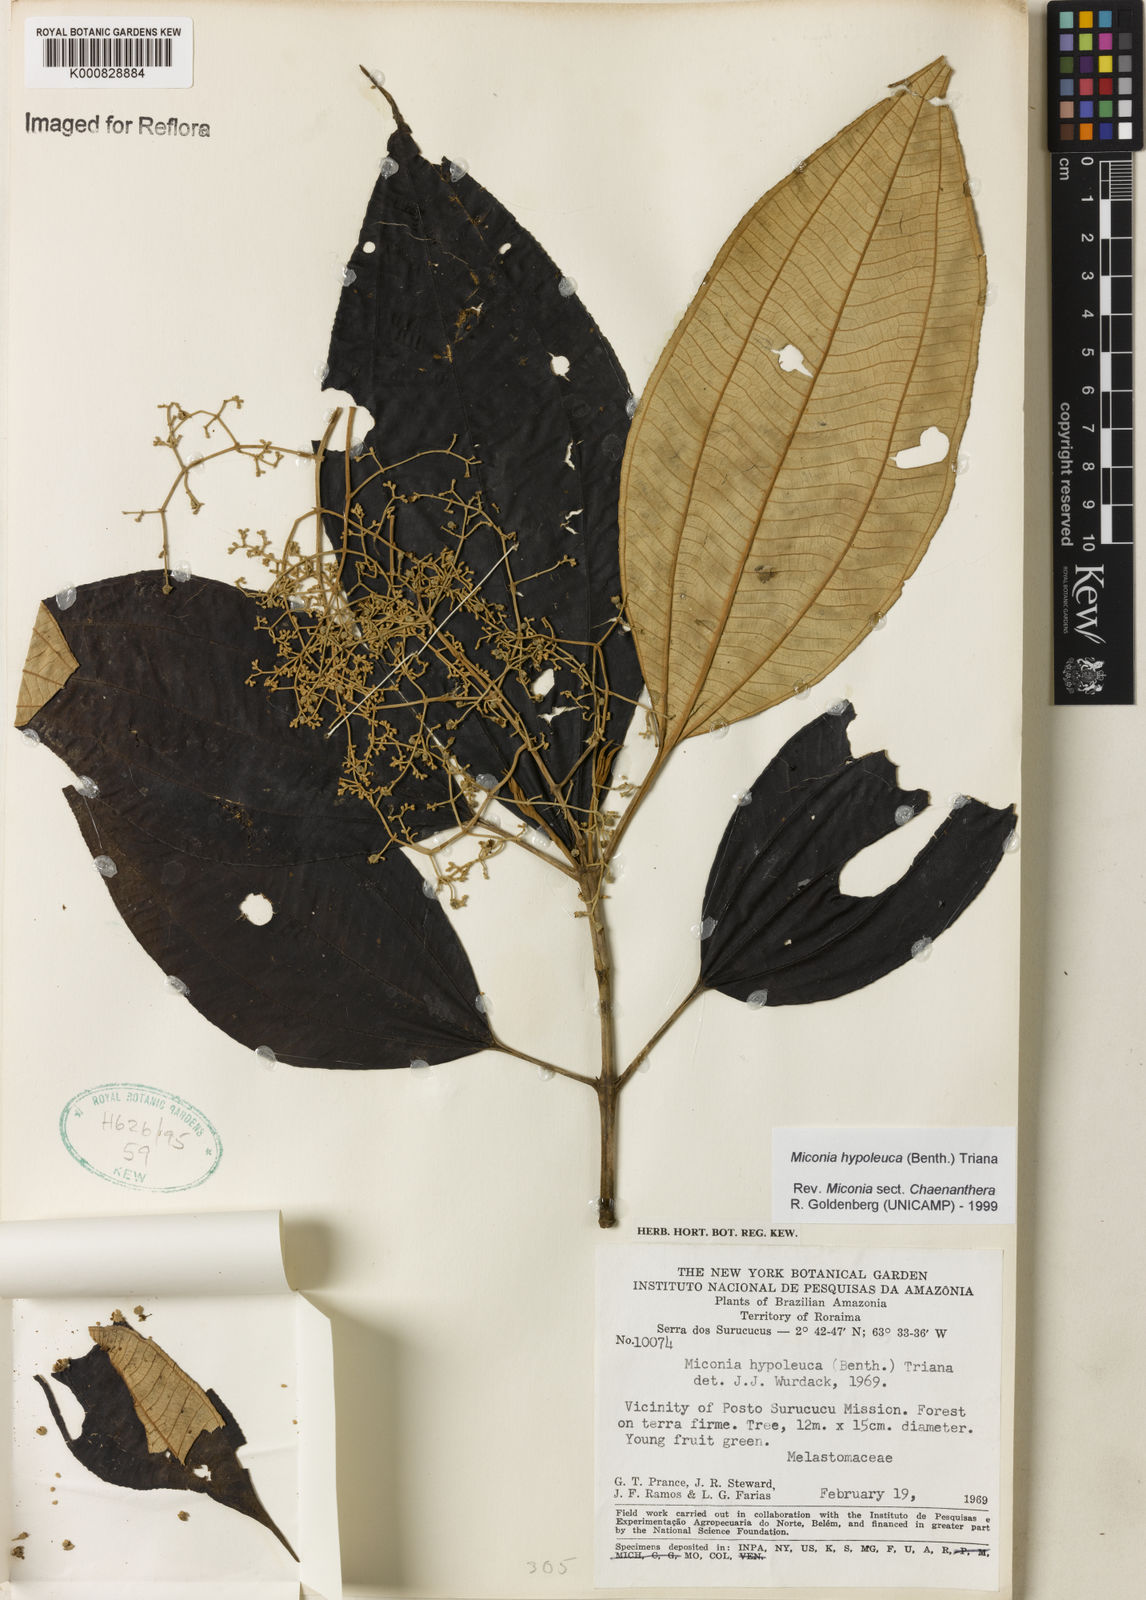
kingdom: Plantae
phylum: Tracheophyta
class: Magnoliopsida
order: Myrtales
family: Melastomataceae
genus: Miconia
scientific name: Miconia hypoleuca
